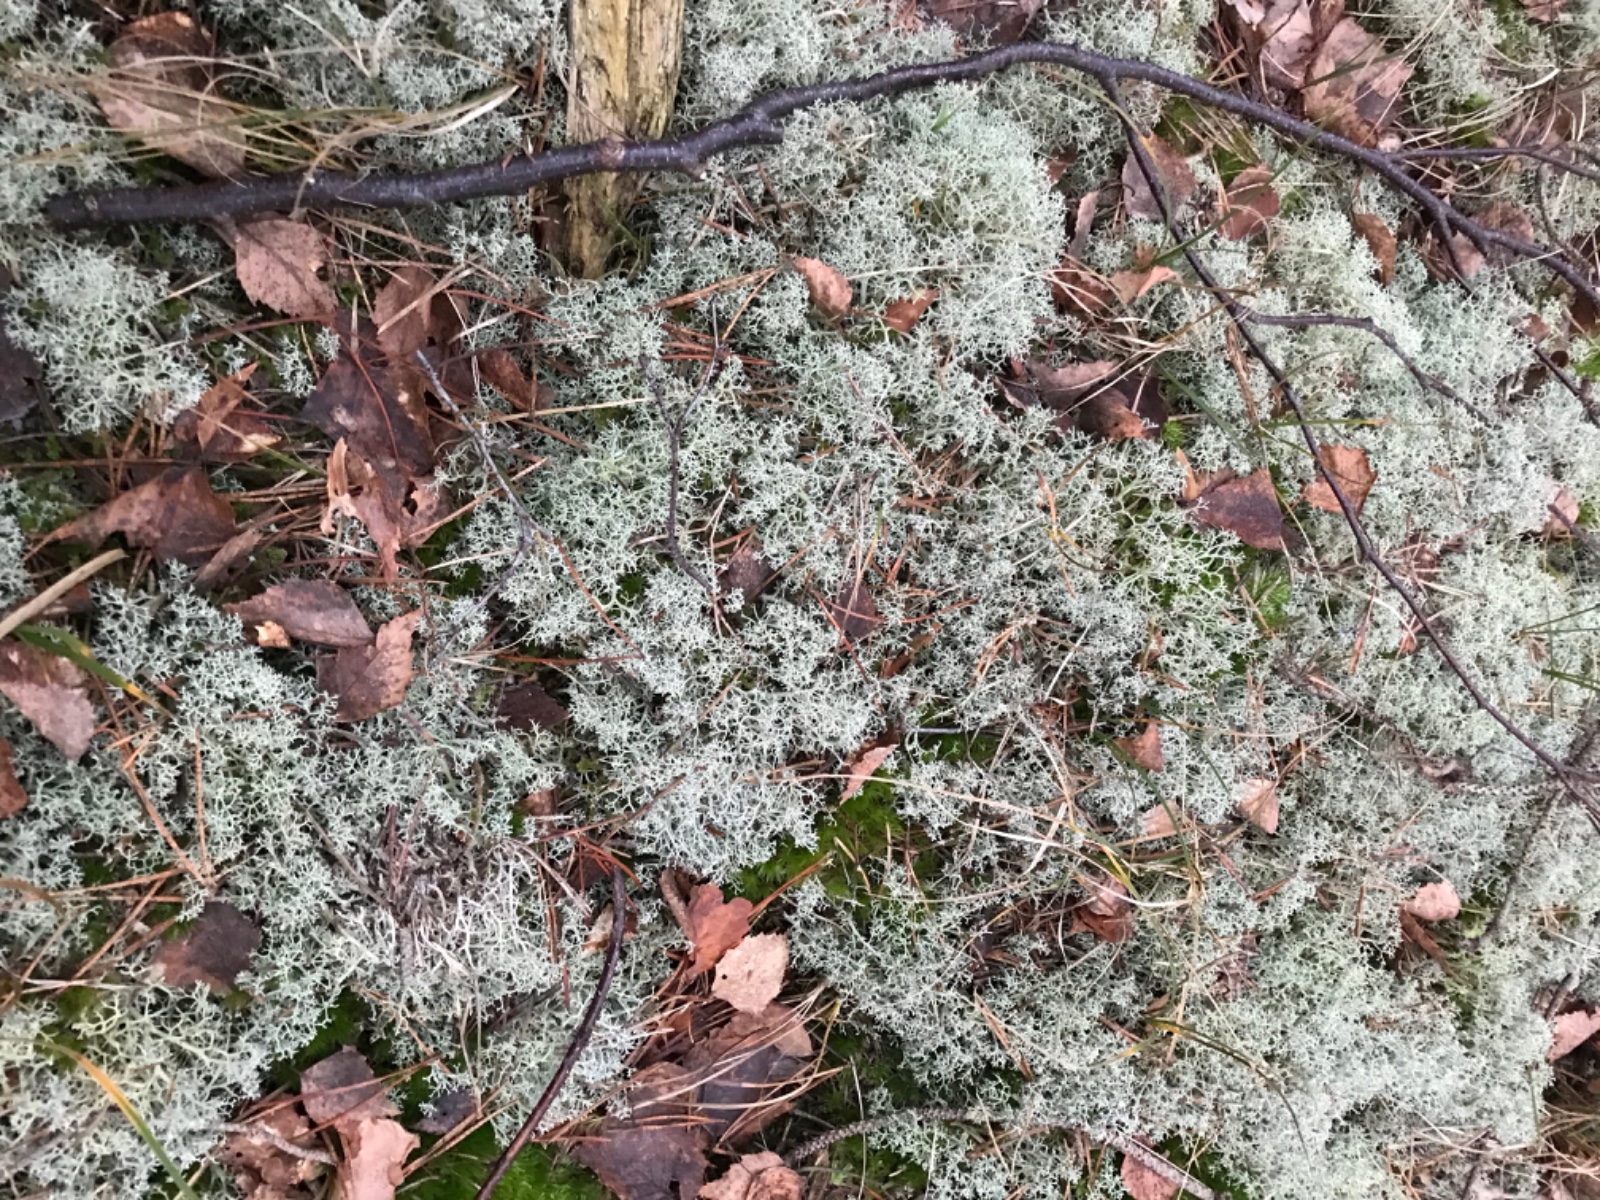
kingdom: Fungi
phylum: Ascomycota
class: Lecanoromycetes
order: Lecanorales
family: Cladoniaceae
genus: Cladonia
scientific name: Cladonia portentosa
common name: hede-rensdyrlav
